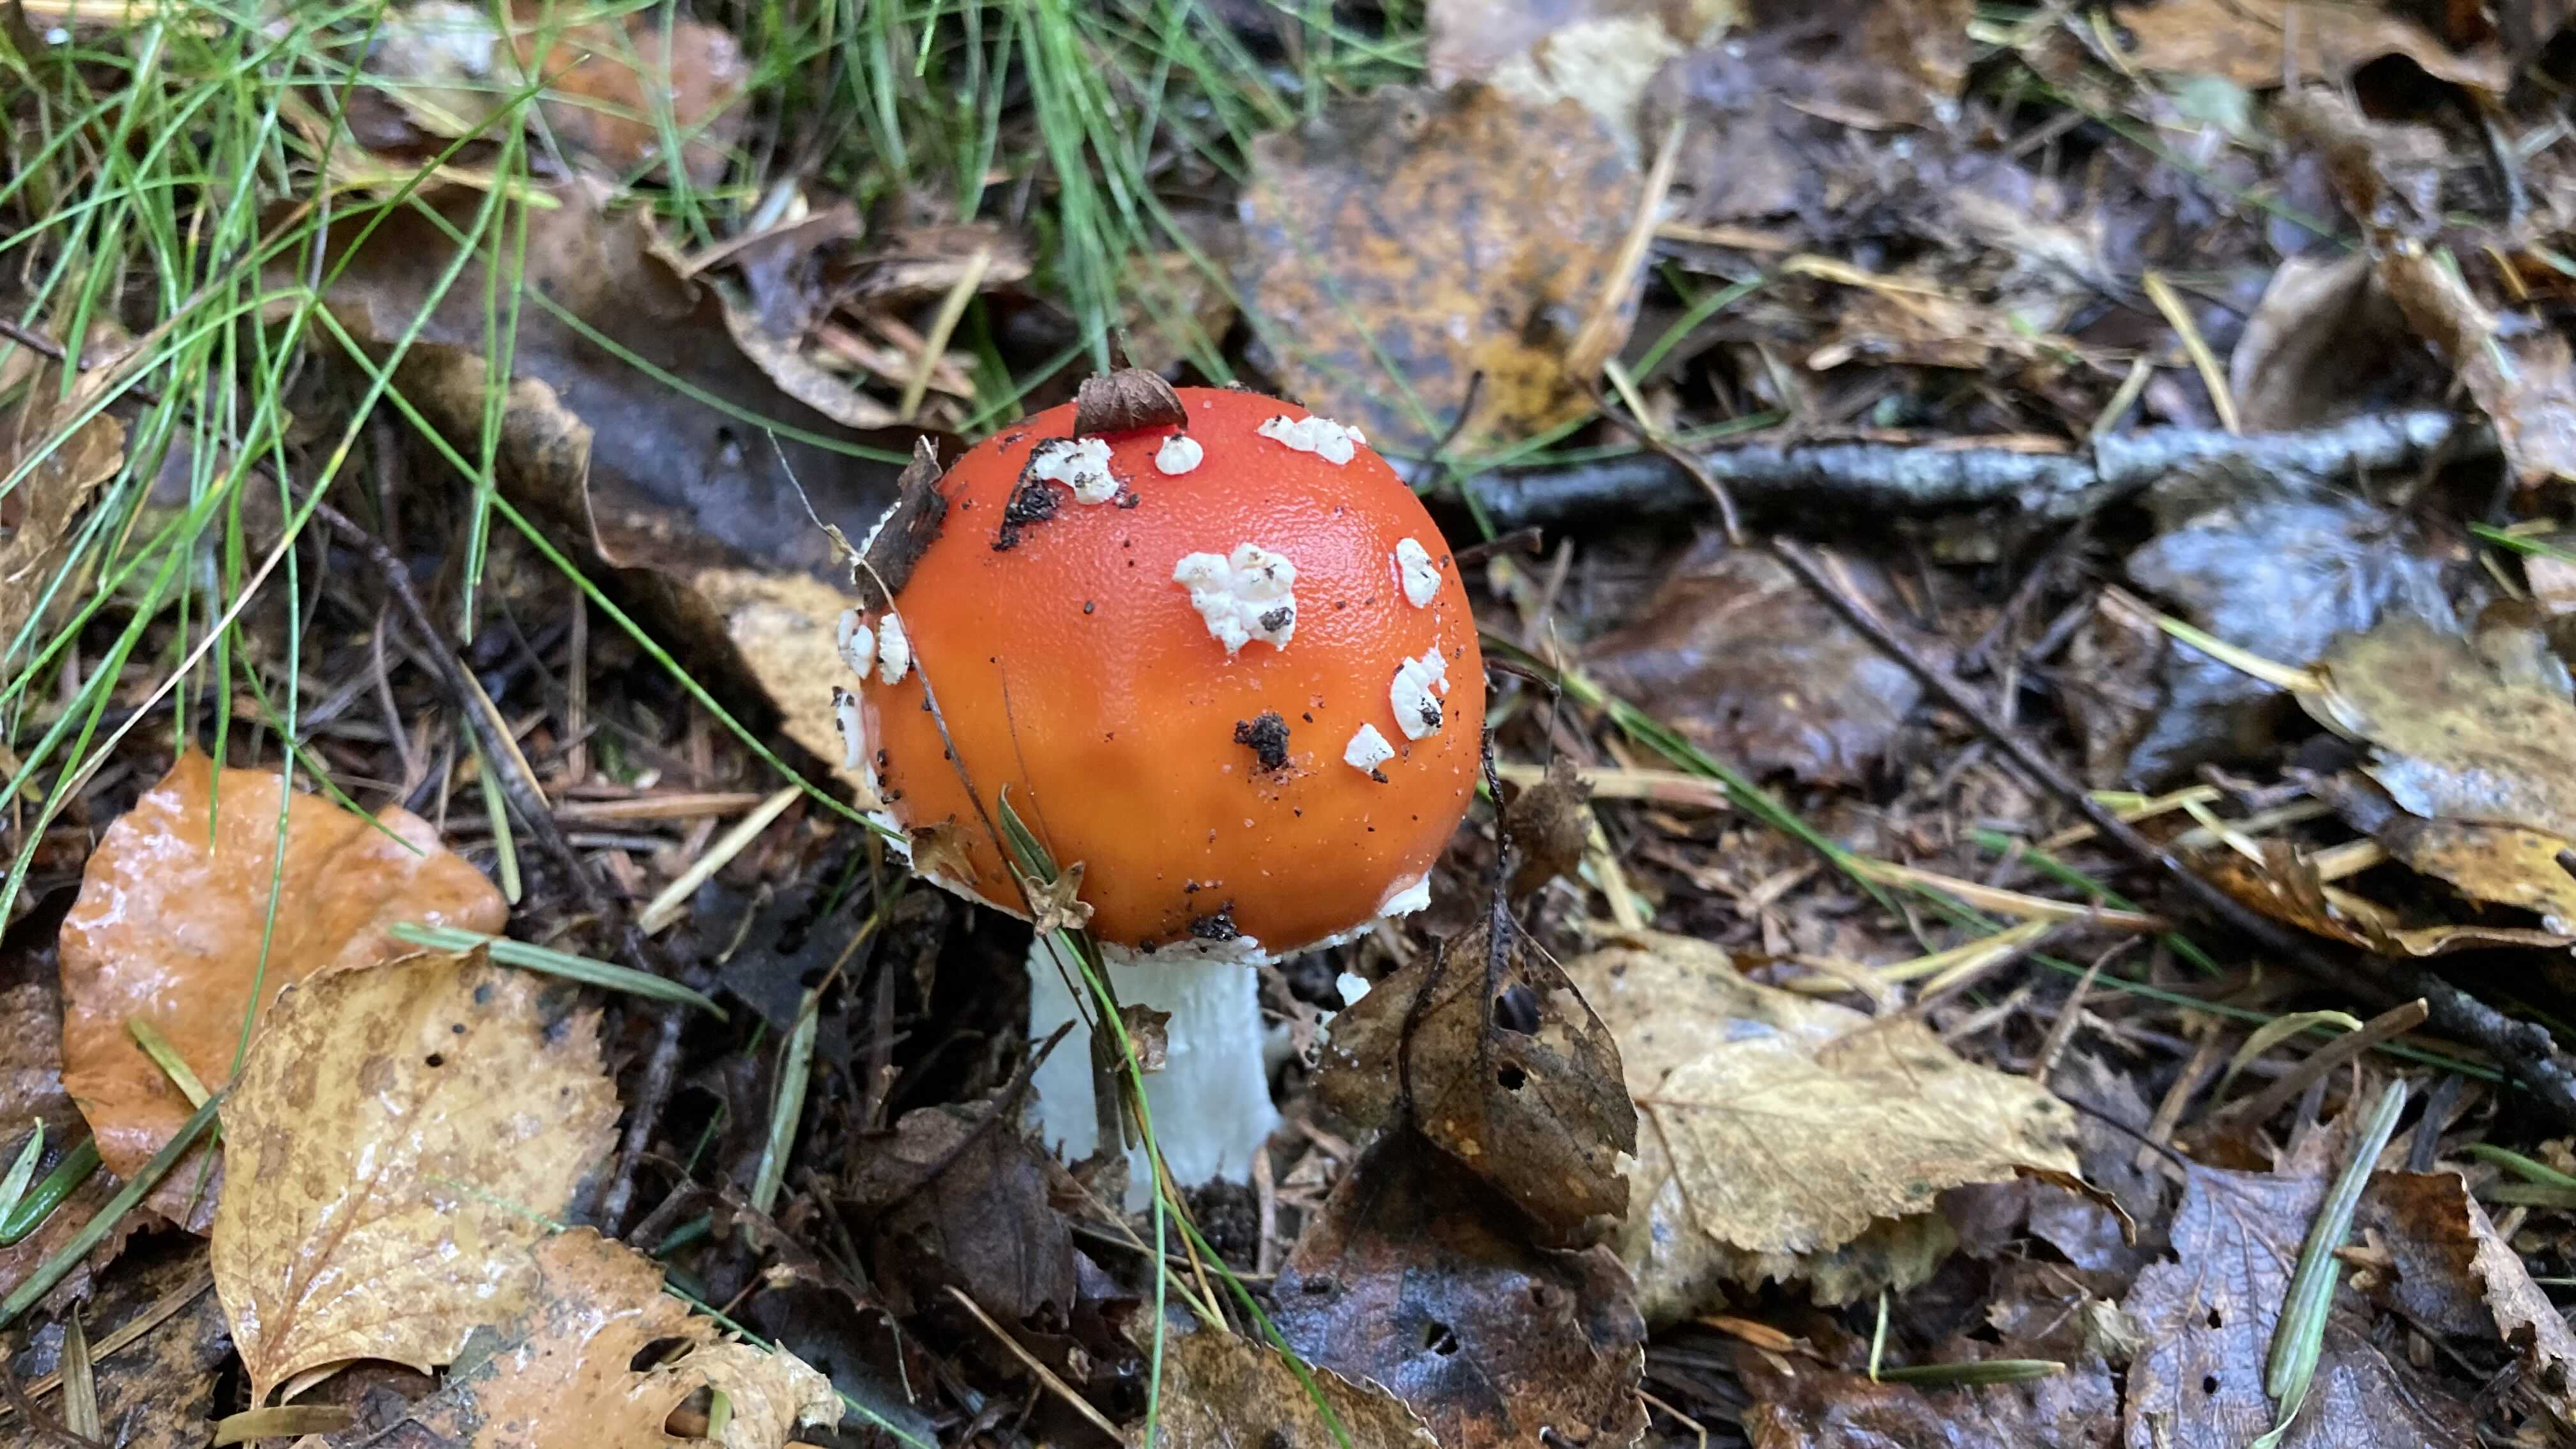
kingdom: Fungi
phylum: Basidiomycota
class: Agaricomycetes
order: Agaricales
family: Amanitaceae
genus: Amanita
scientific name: Amanita muscaria
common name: rød fluesvamp
